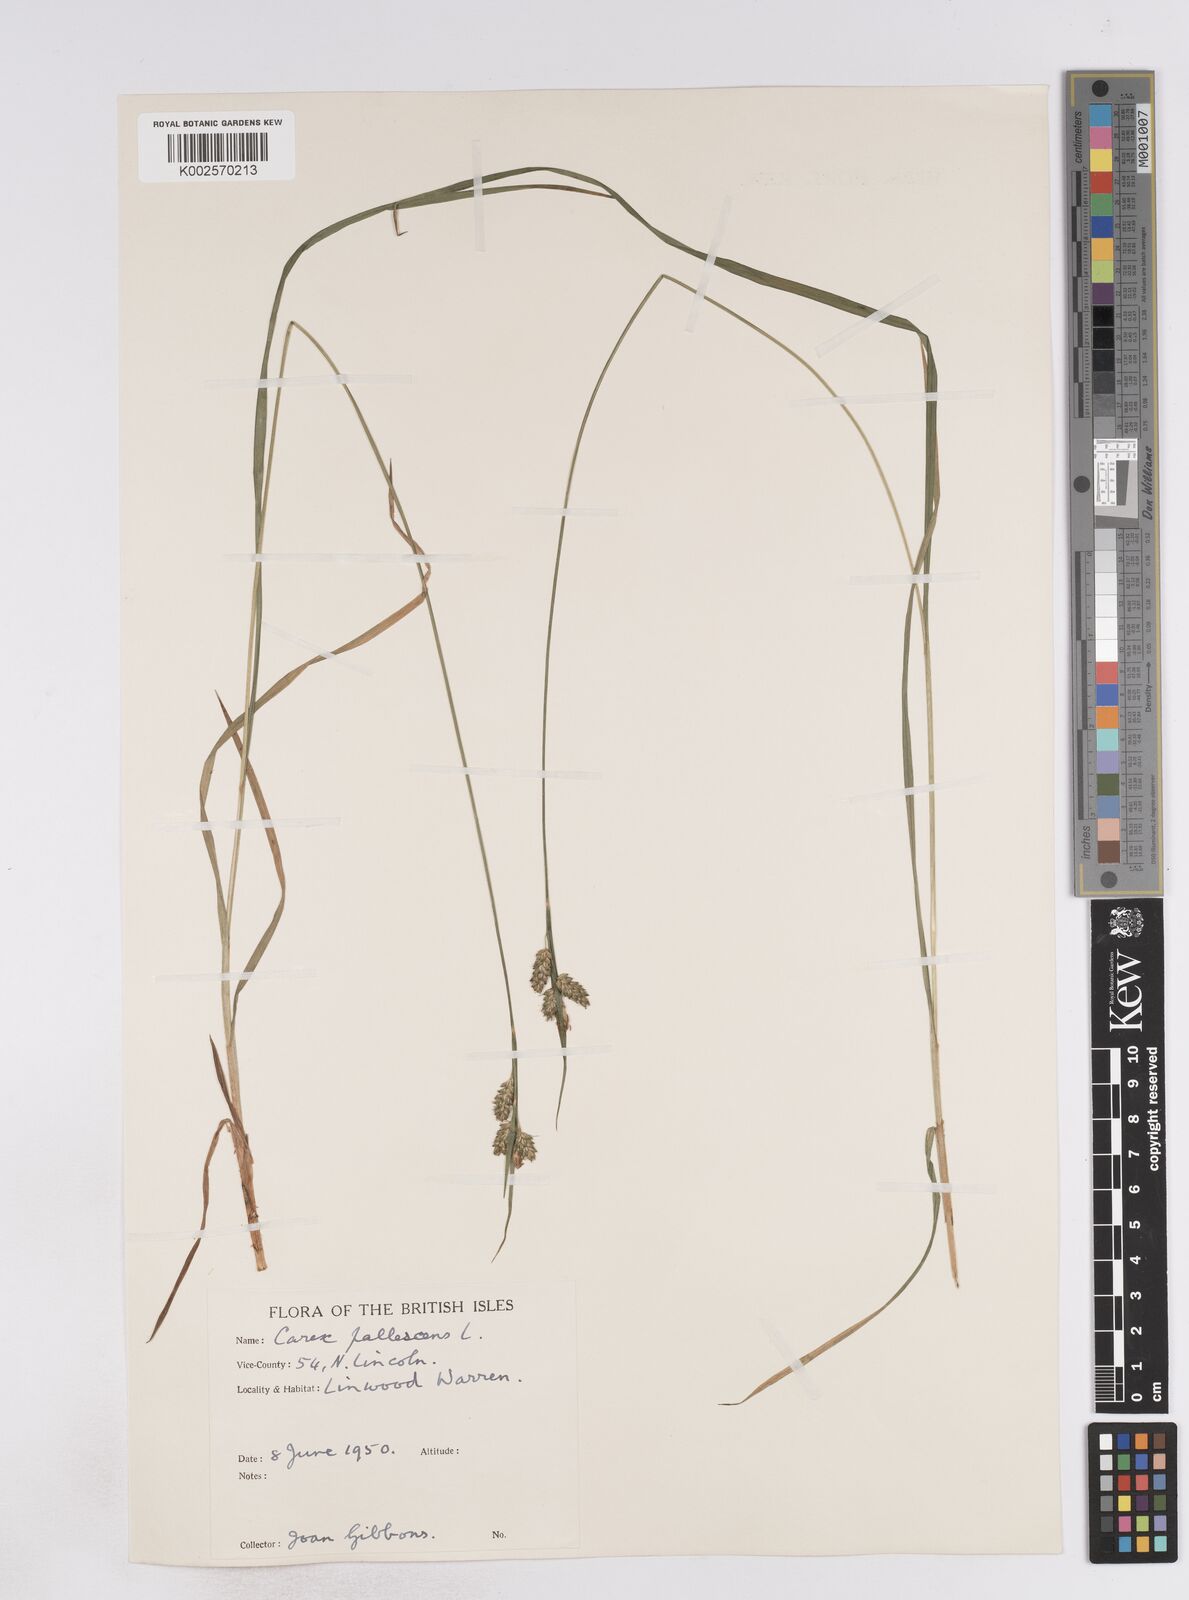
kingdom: Plantae
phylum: Tracheophyta
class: Liliopsida
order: Poales
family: Cyperaceae
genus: Carex
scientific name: Carex pallescens
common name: Pale sedge
